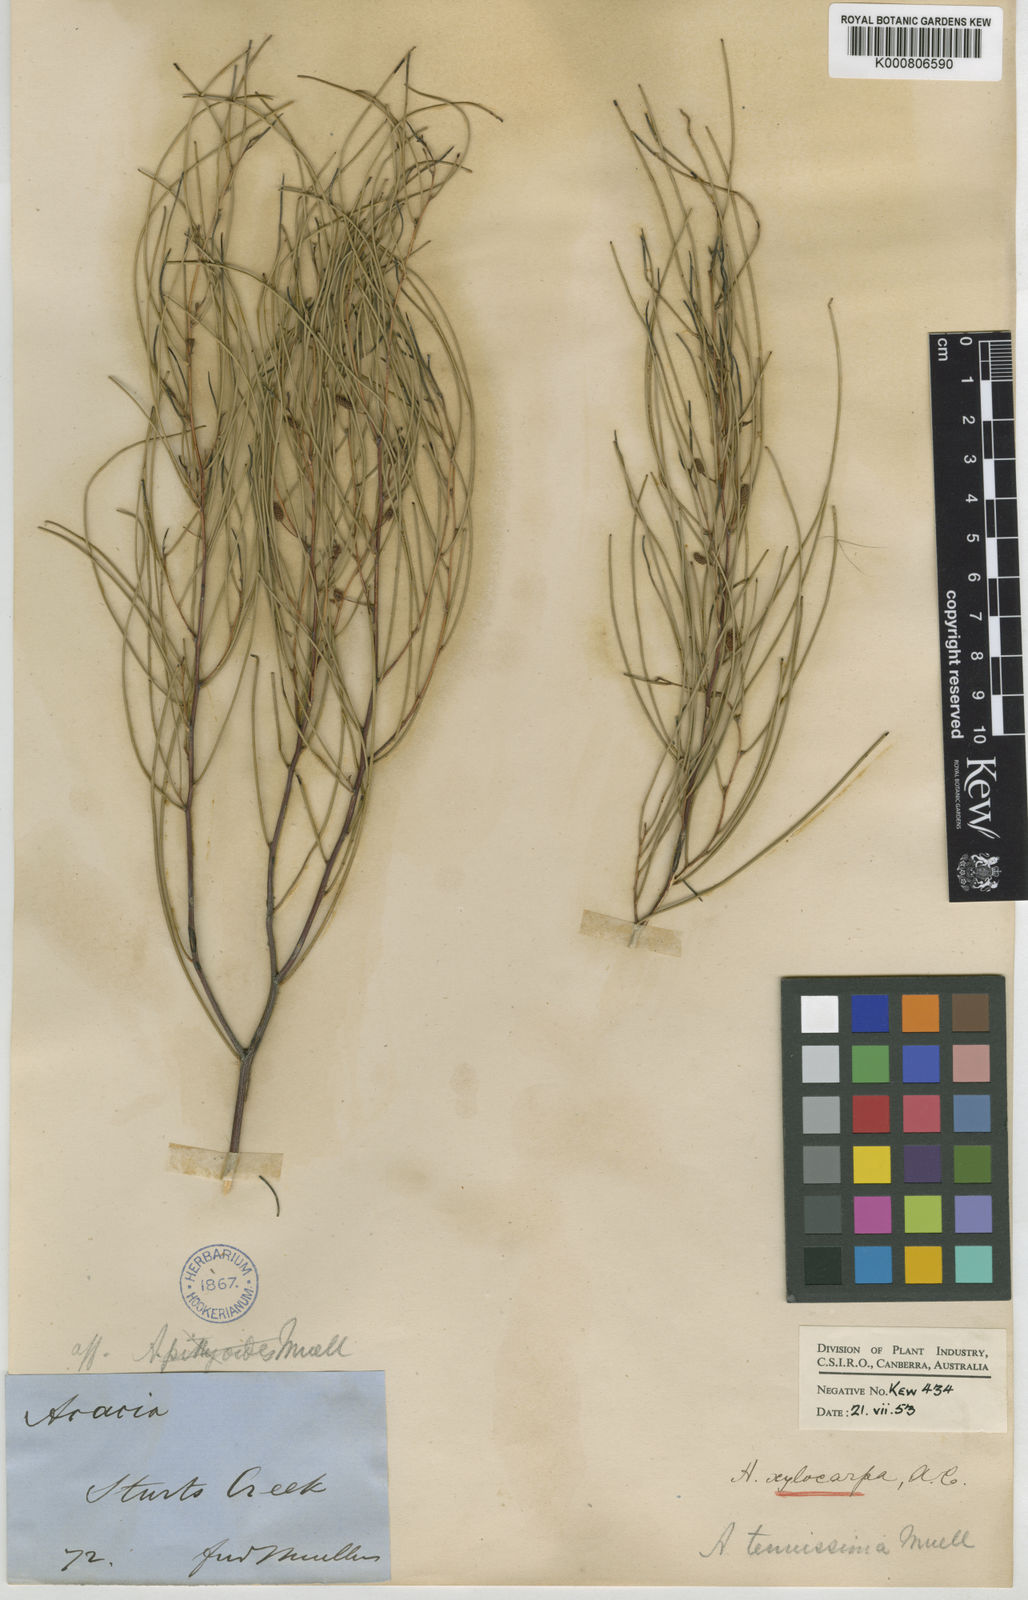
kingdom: Plantae
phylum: Tracheophyta
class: Magnoliopsida
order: Fabales
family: Fabaceae
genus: Acacia
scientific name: Acacia tenuissima
